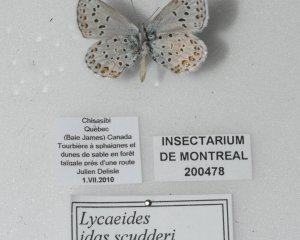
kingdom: Animalia
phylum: Arthropoda
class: Insecta
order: Lepidoptera
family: Lycaenidae
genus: Lycaeides
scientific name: Lycaeides idas
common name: Northern Blue
